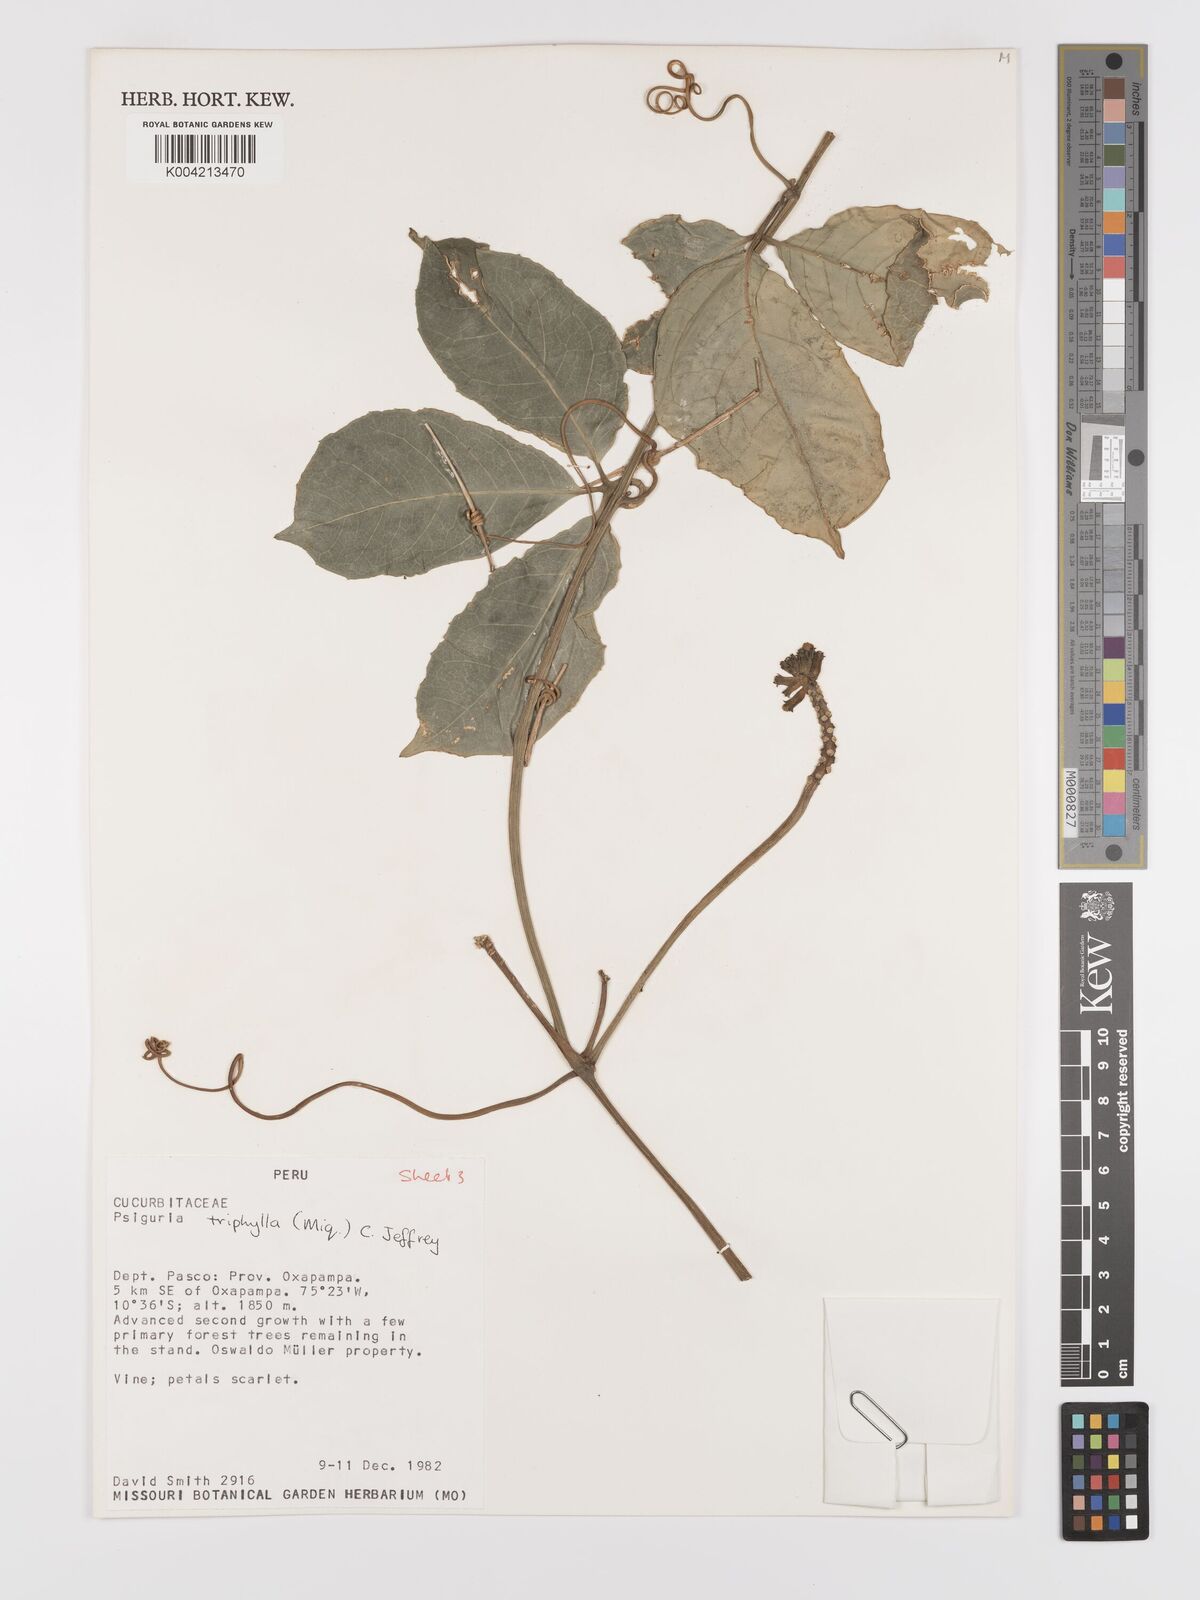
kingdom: Plantae
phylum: Tracheophyta
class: Magnoliopsida
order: Cucurbitales
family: Cucurbitaceae
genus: Psiguria
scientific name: Psiguria triphylla
